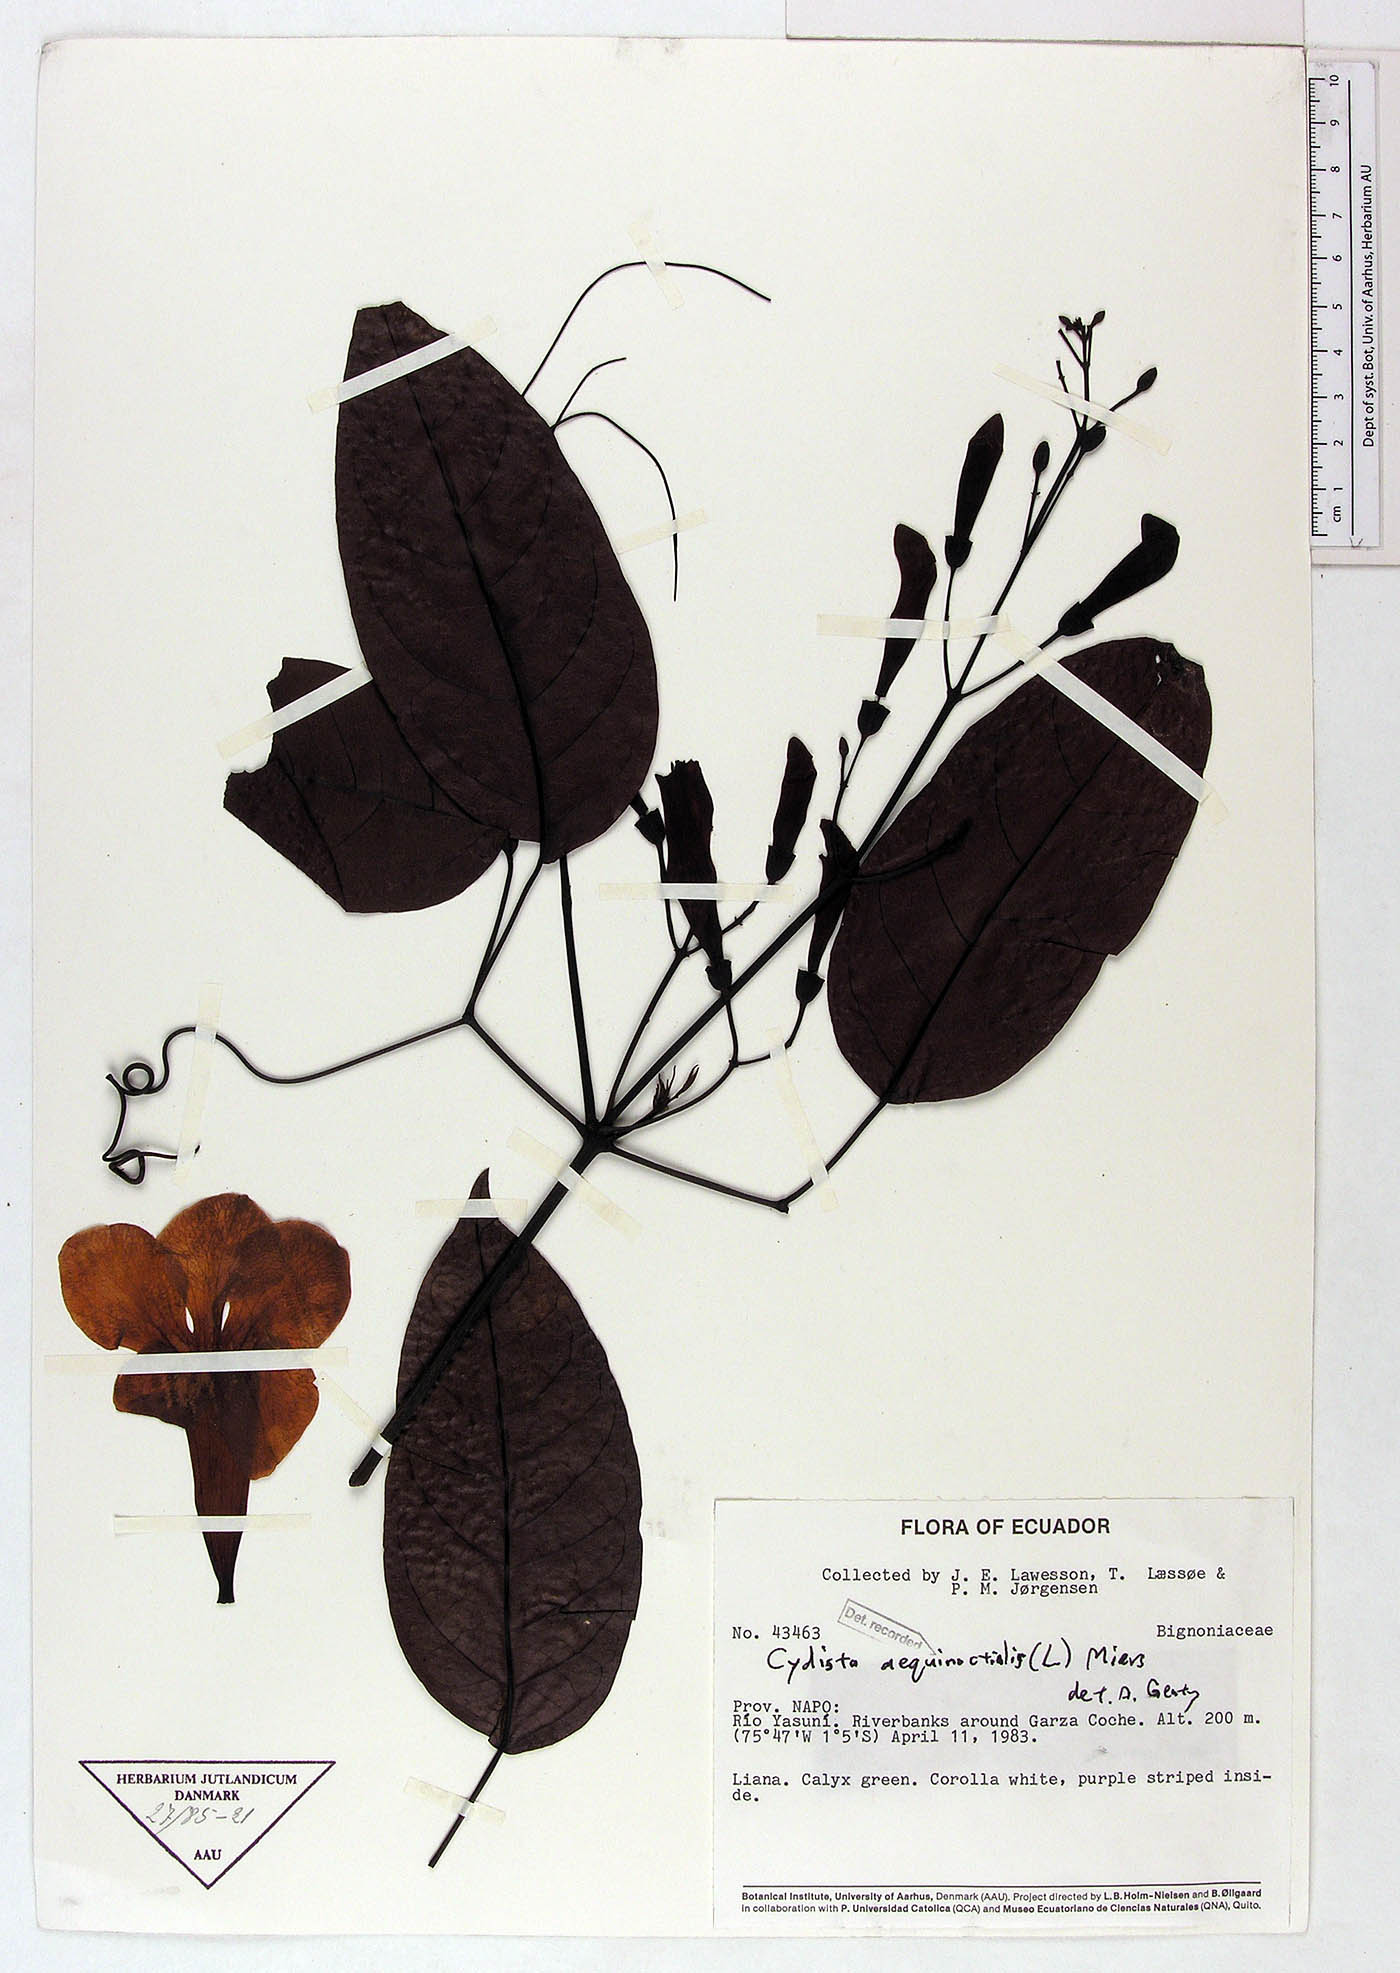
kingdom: Plantae
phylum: Tracheophyta
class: Magnoliopsida
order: Lamiales
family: Bignoniaceae
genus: Bignonia
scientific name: Bignonia aequinoctialis
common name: Garlicvine
